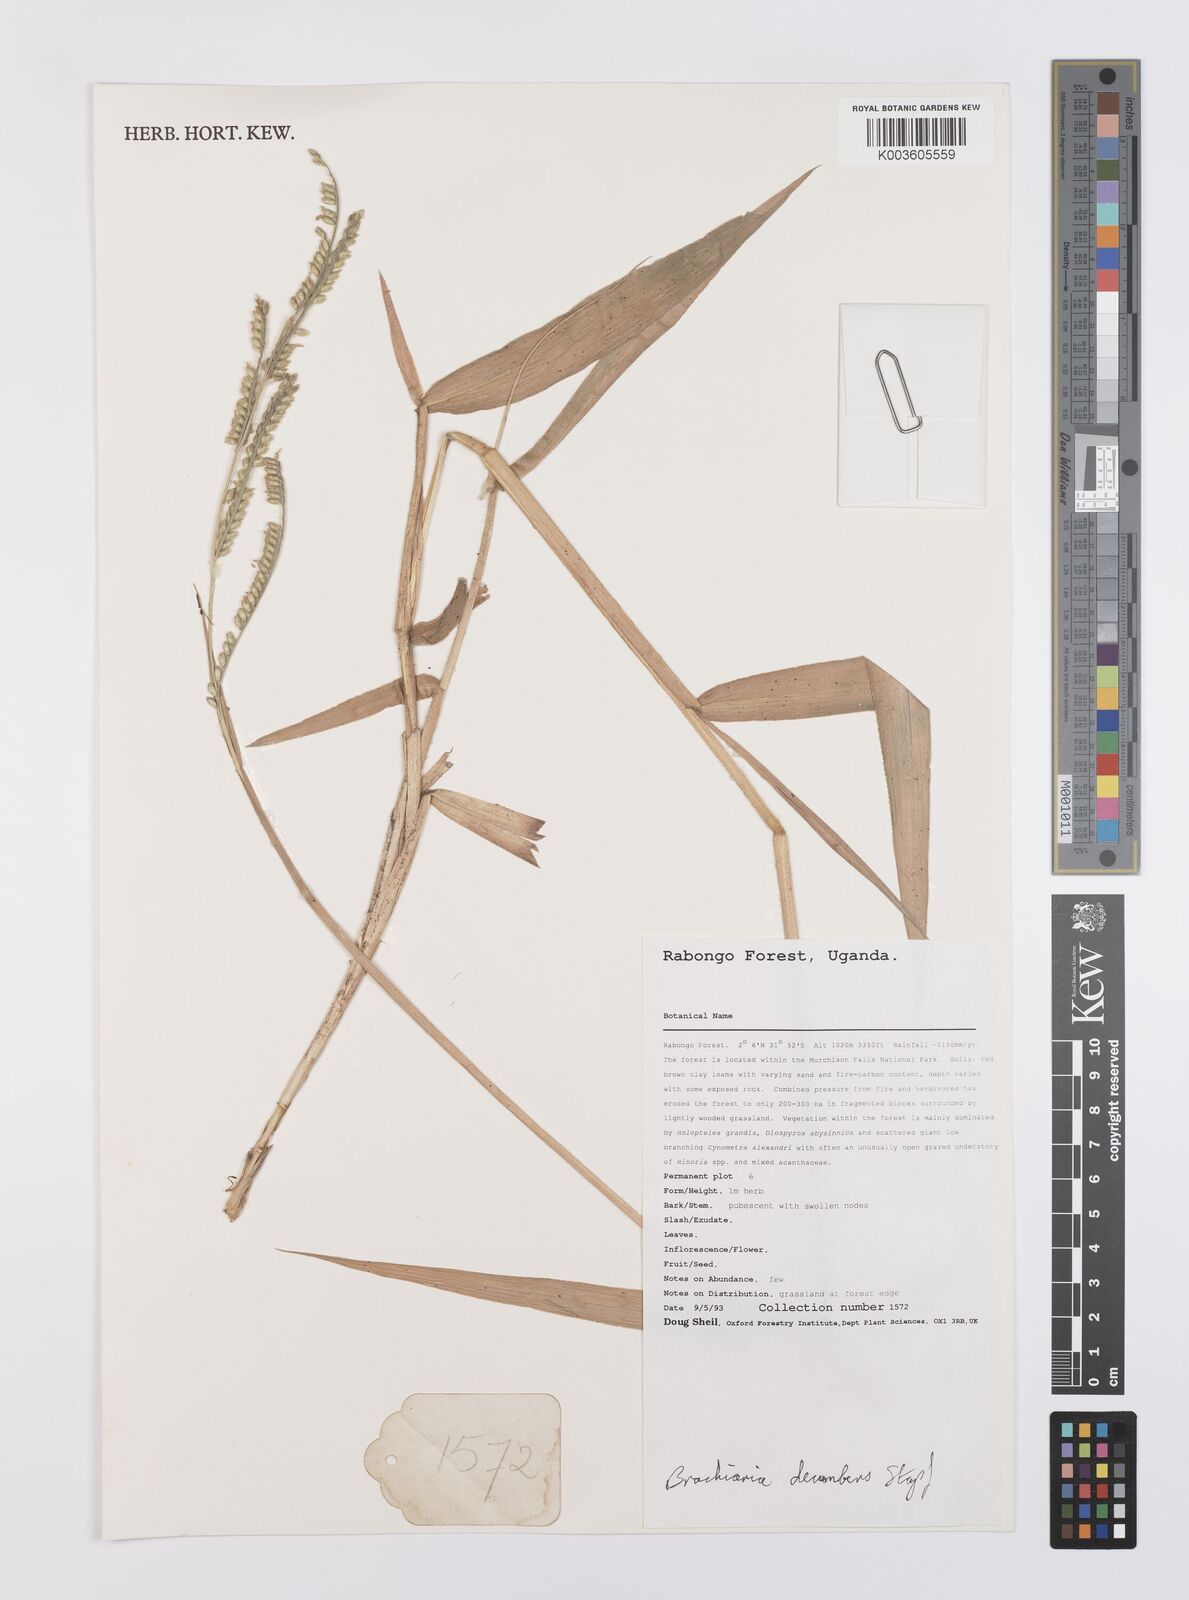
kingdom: Plantae
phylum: Tracheophyta
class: Liliopsida
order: Poales
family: Poaceae
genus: Urochloa
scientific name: Urochloa eminii
